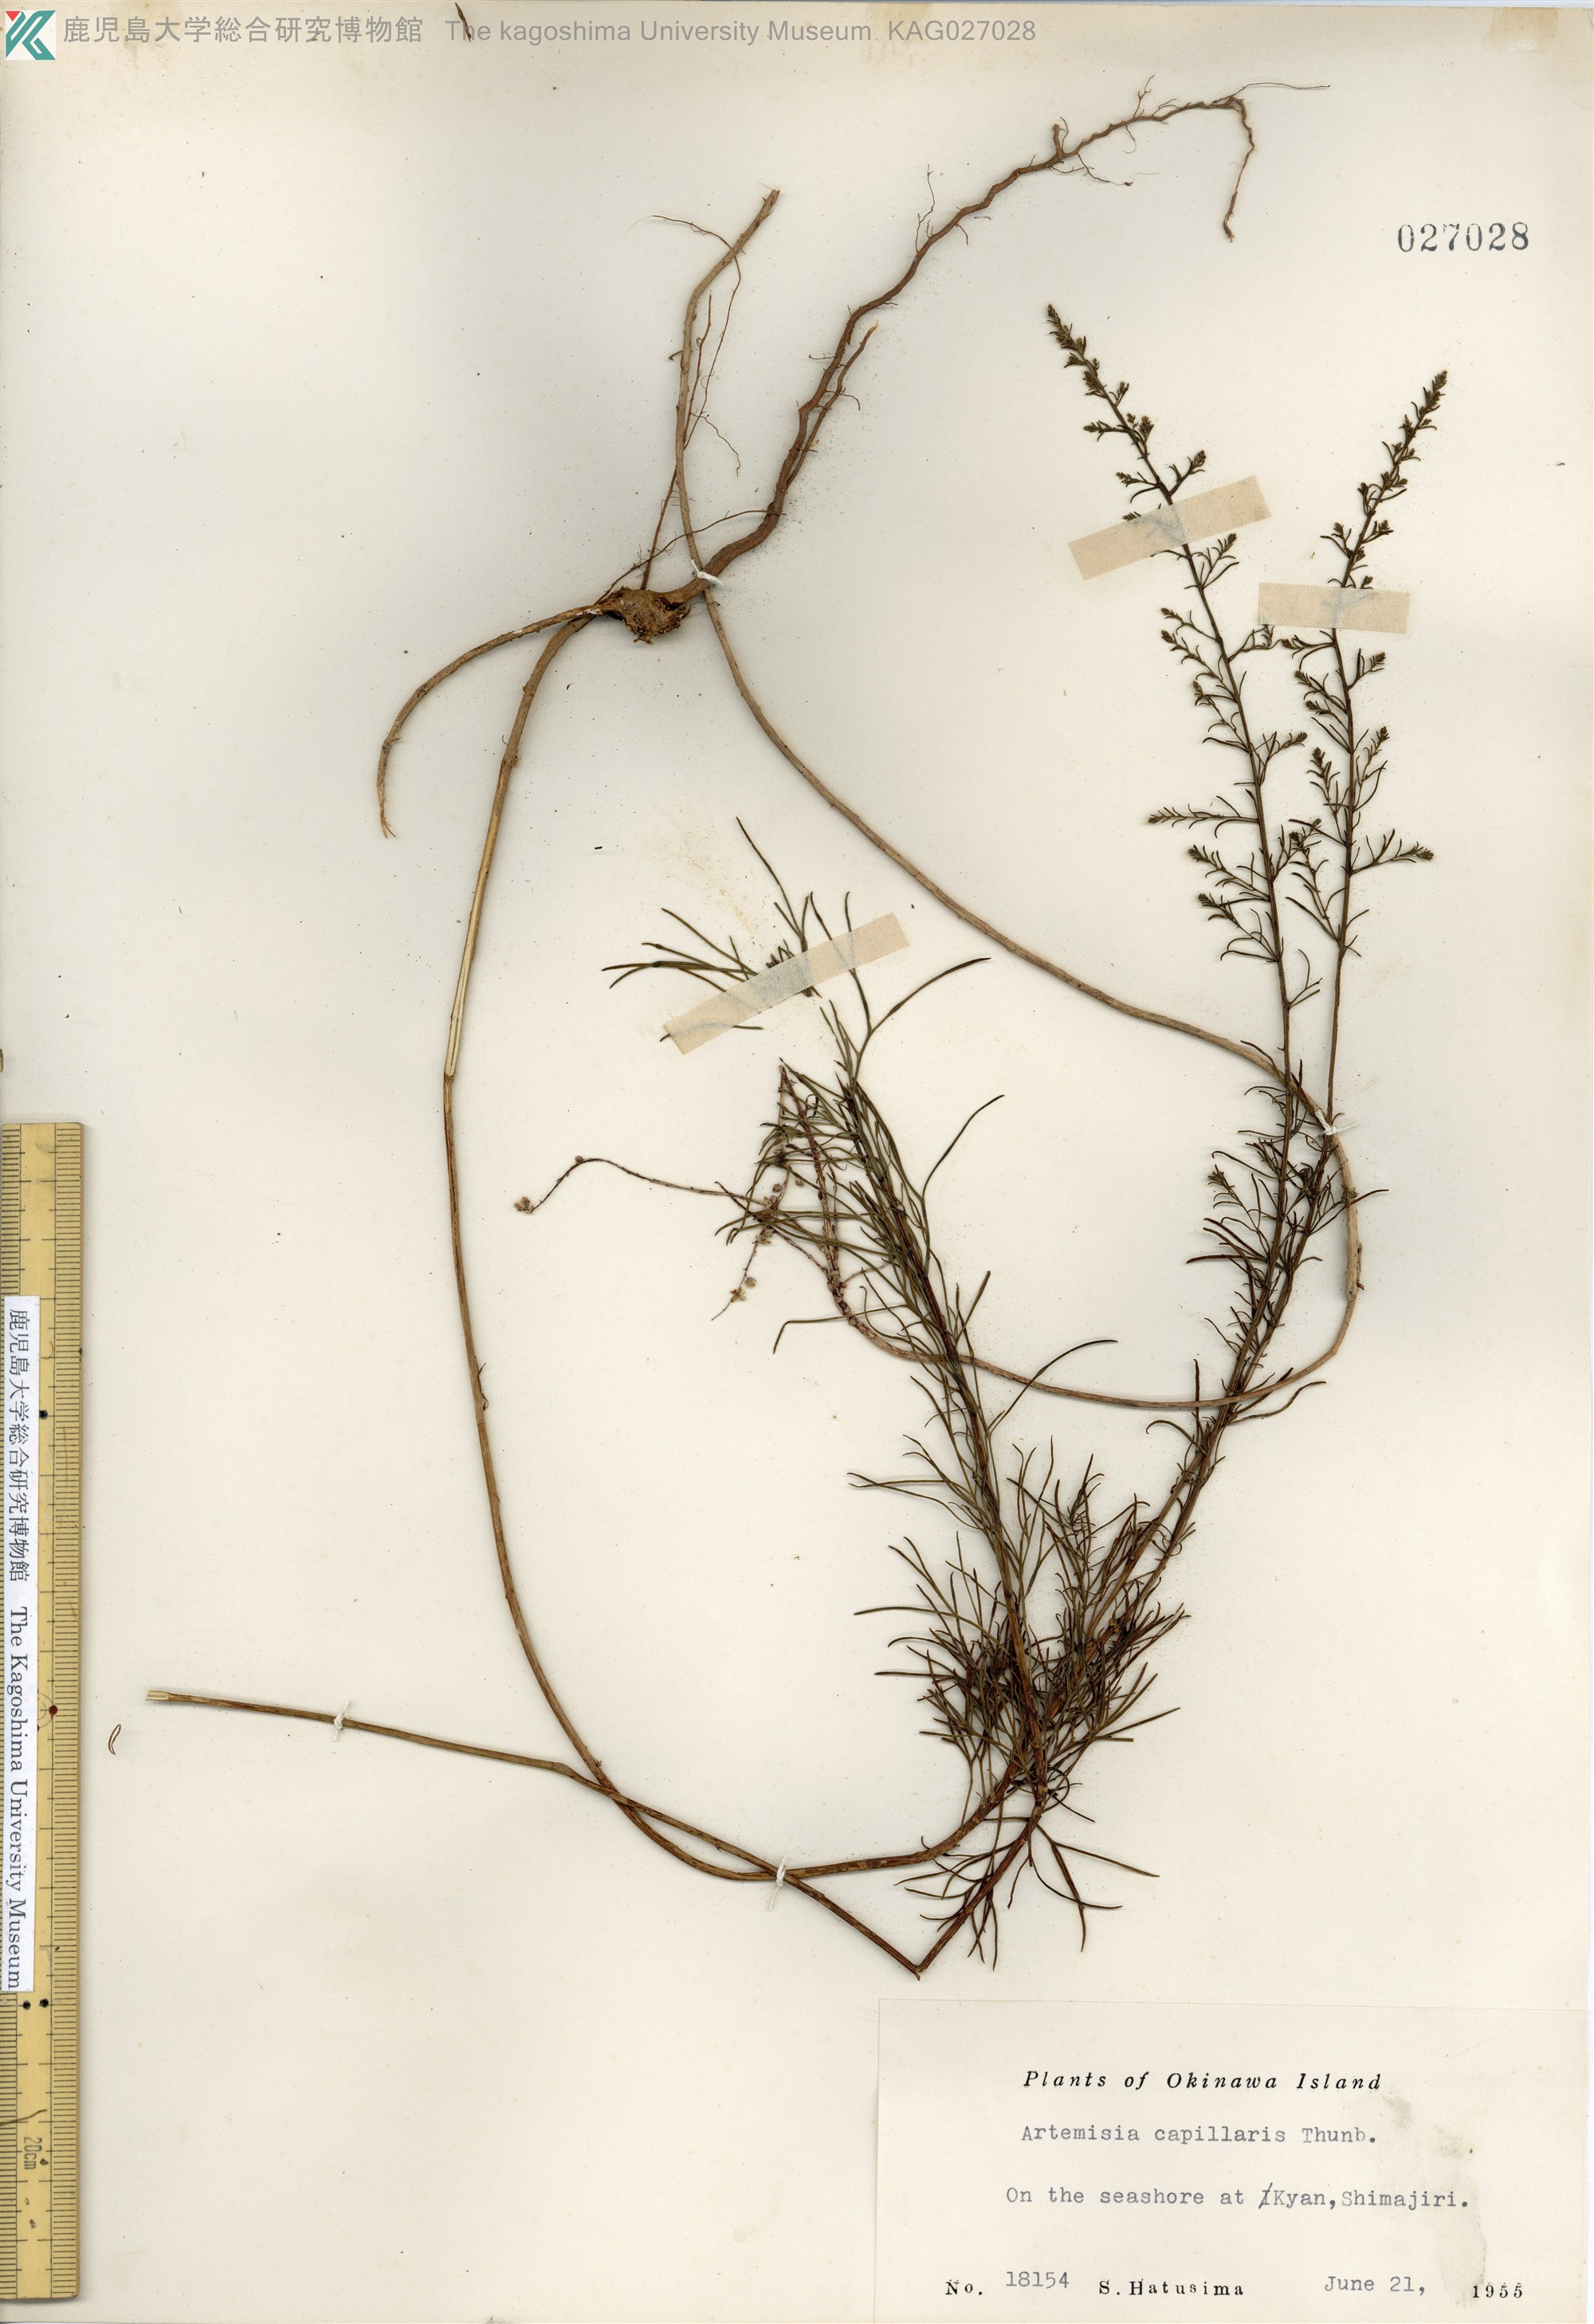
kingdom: Plantae
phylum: Tracheophyta
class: Magnoliopsida
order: Asterales
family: Asteraceae
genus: Artemisia
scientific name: Artemisia capillaris
